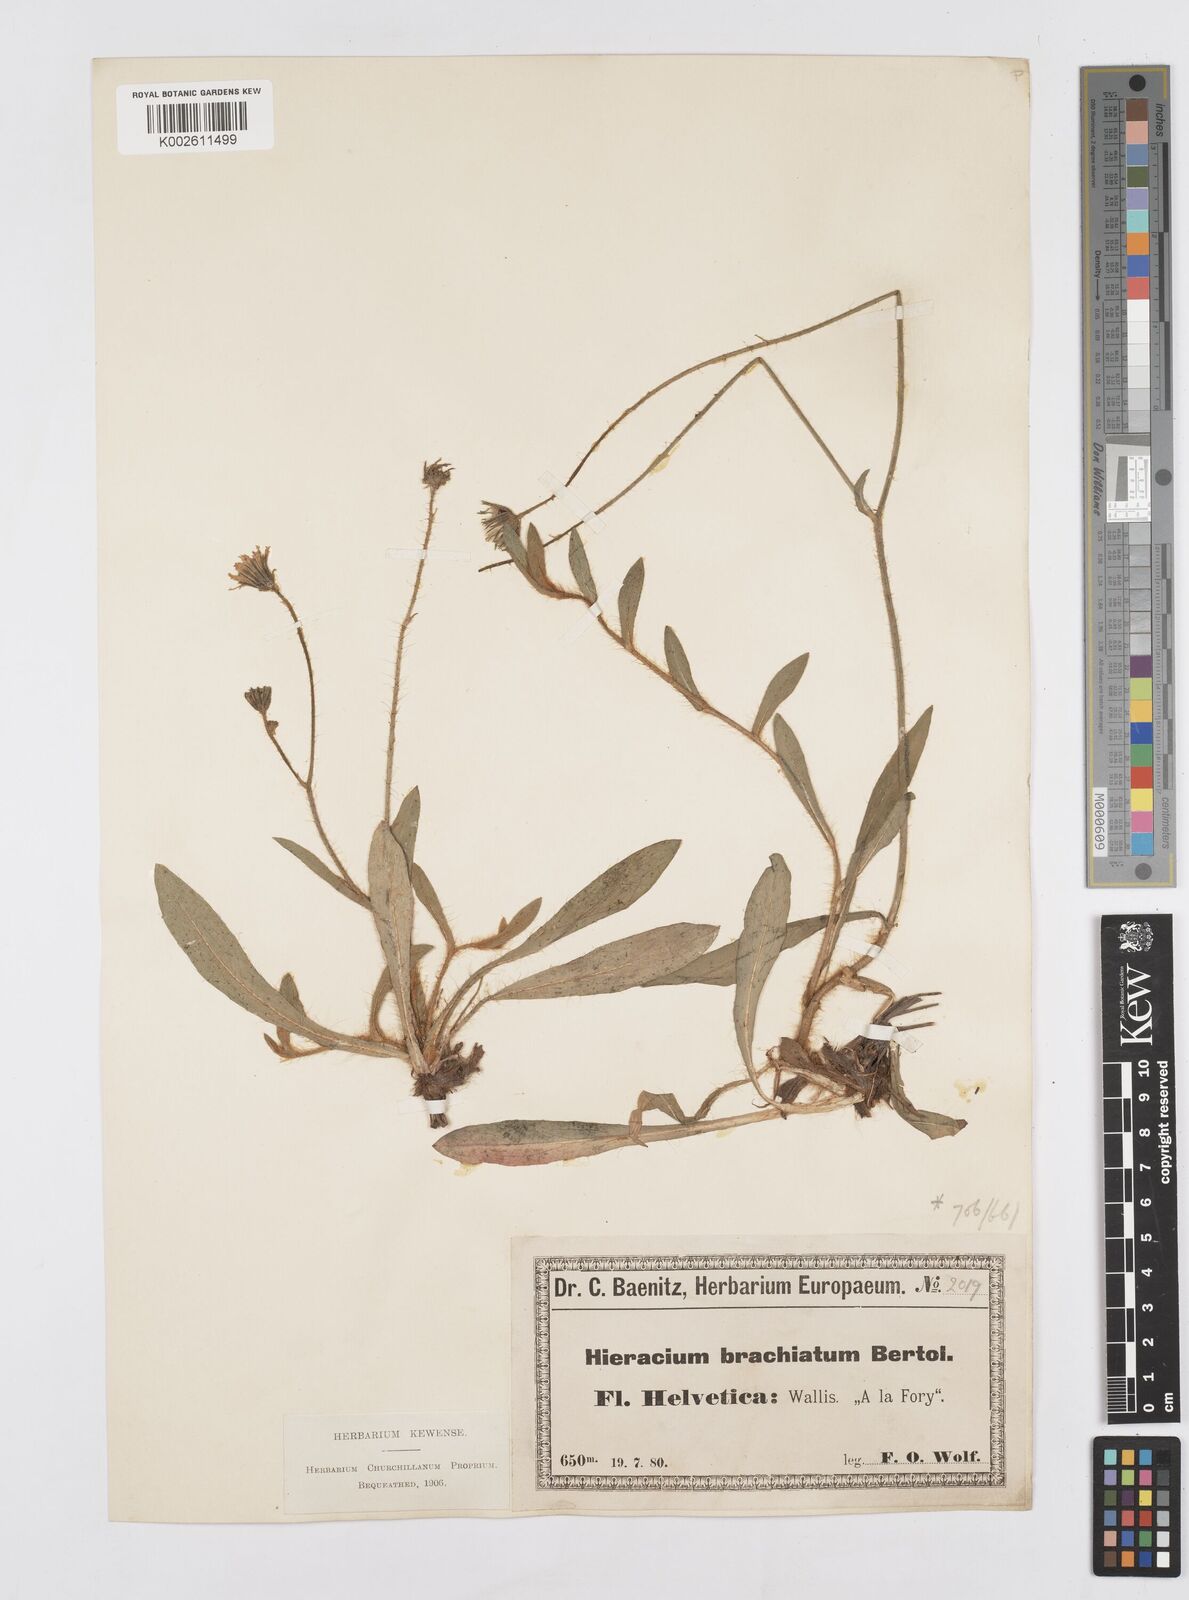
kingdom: Plantae
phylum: Tracheophyta
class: Magnoliopsida
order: Asterales
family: Asteraceae
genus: Pilosella
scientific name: Pilosella acutifolia
